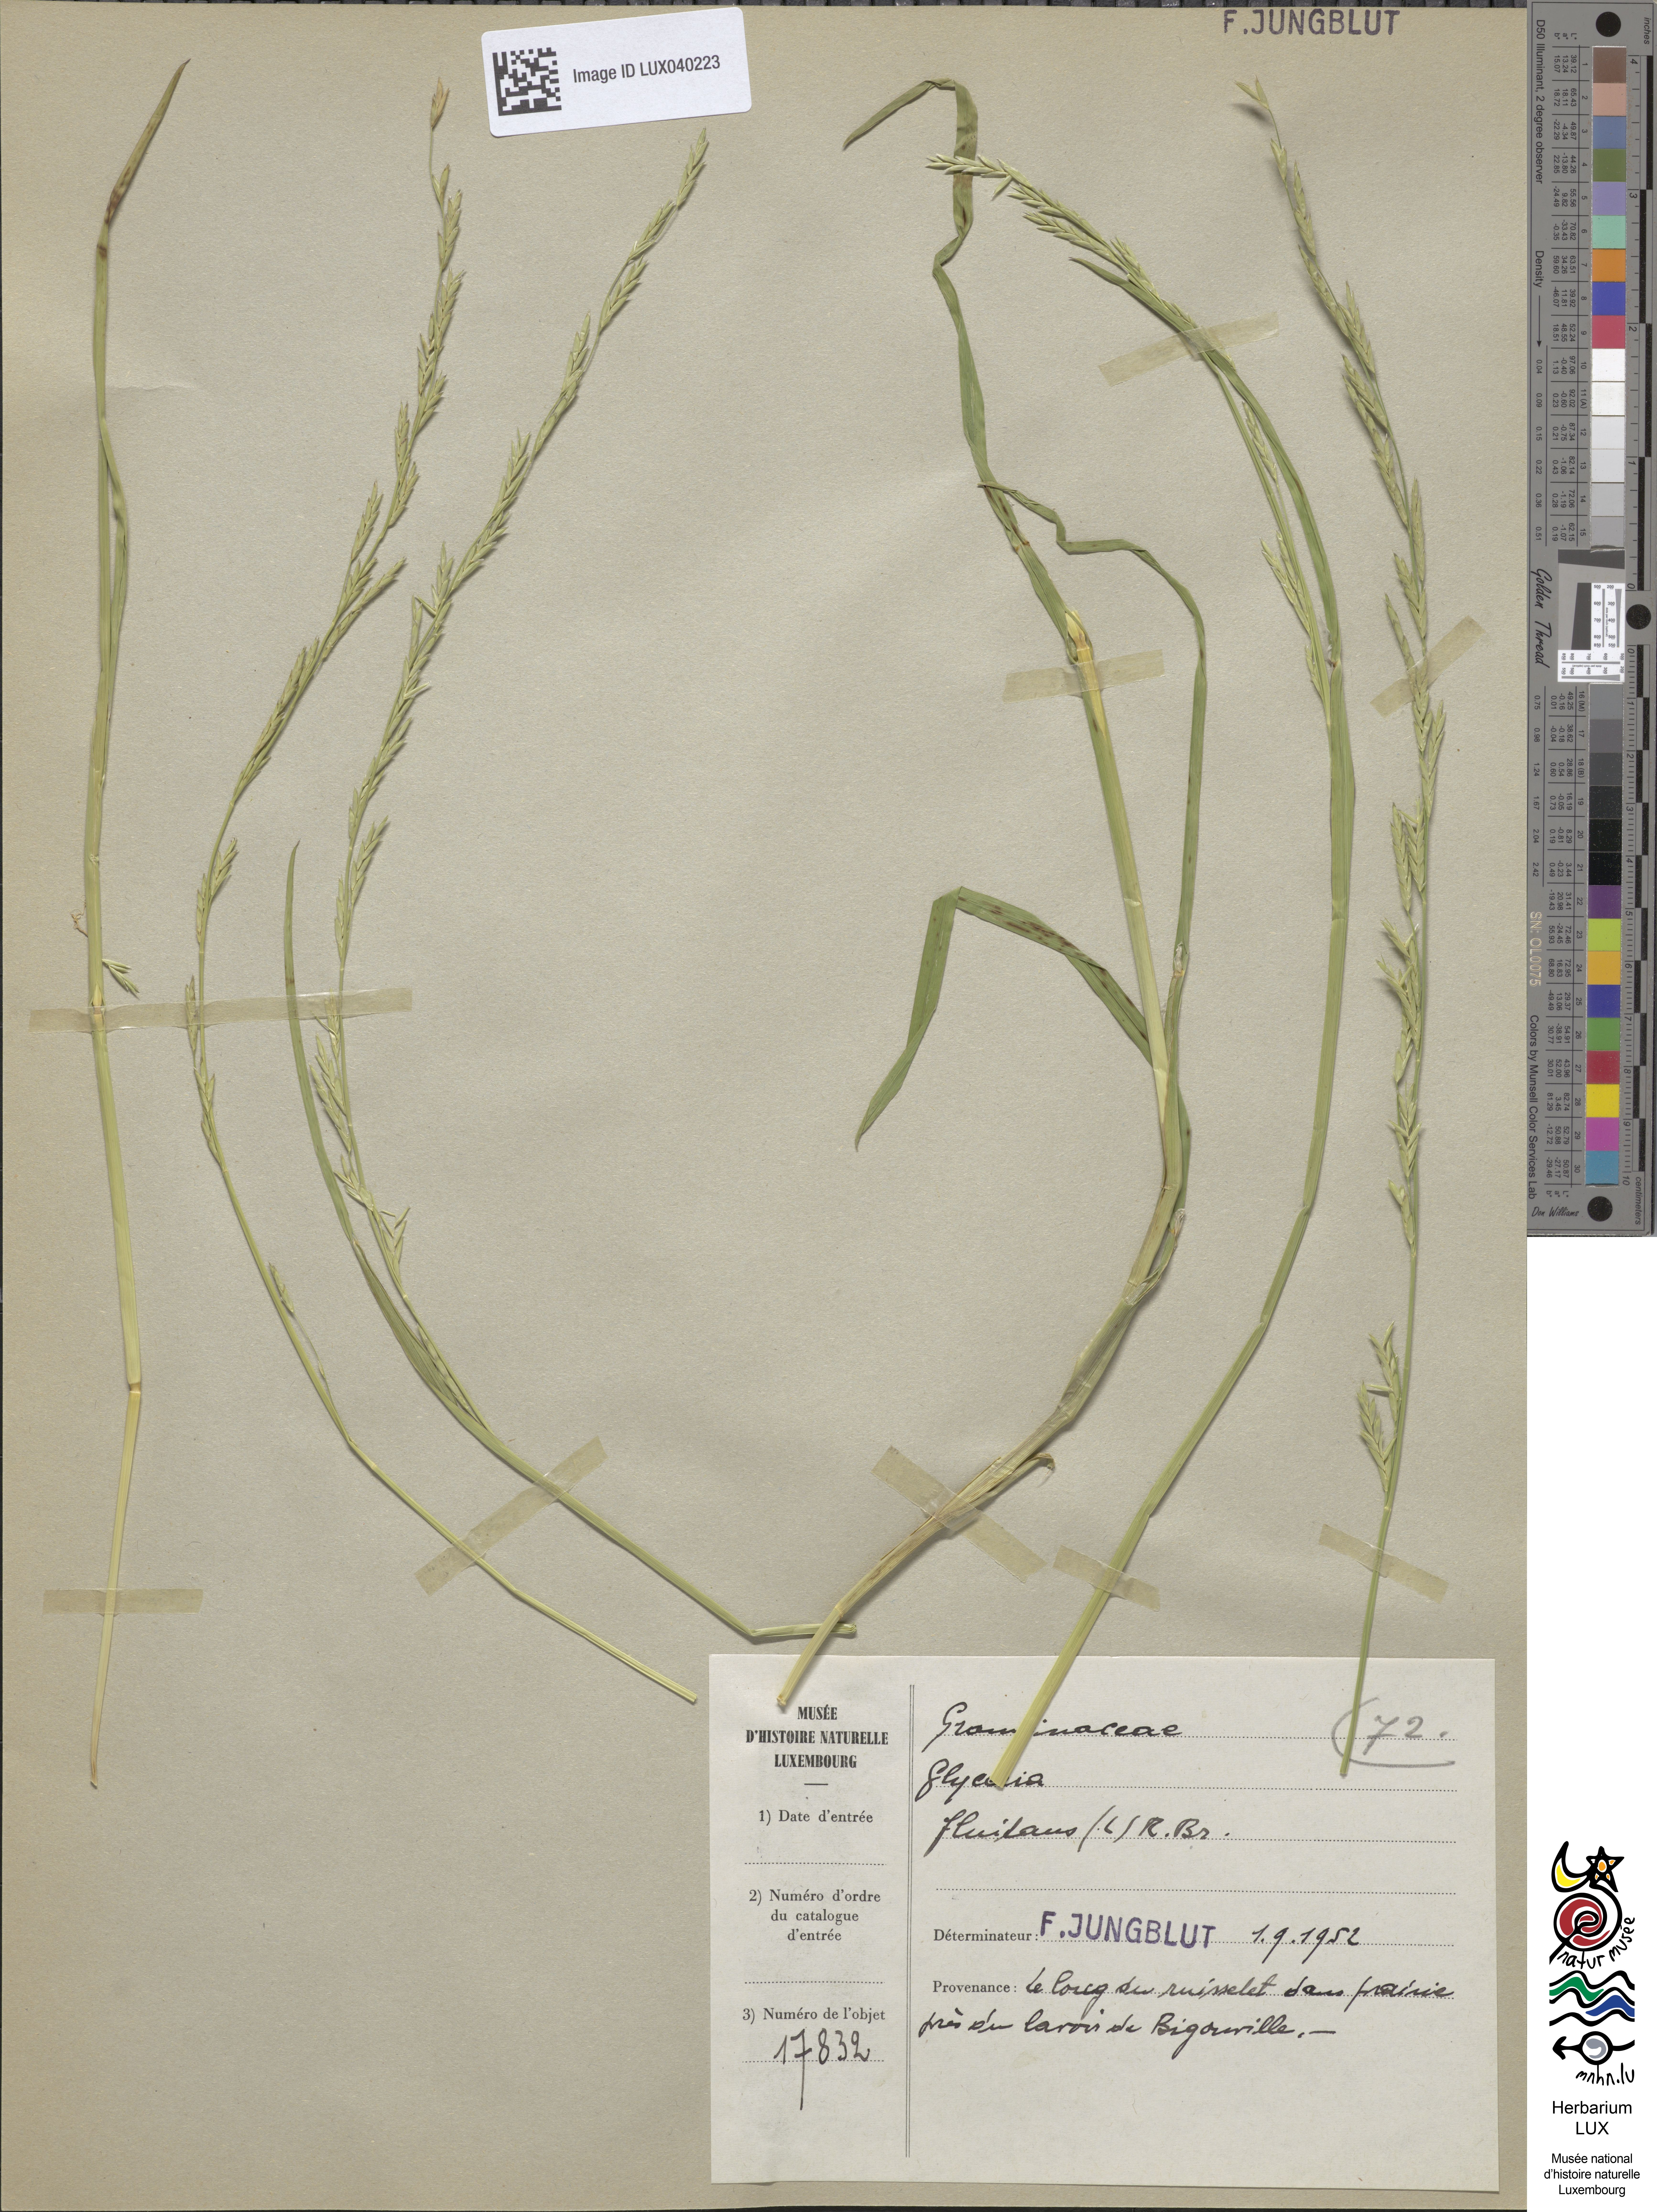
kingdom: Plantae
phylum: Tracheophyta
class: Liliopsida
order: Poales
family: Poaceae
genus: Glyceria
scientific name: Glyceria fluitans
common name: Floating sweet-grass
